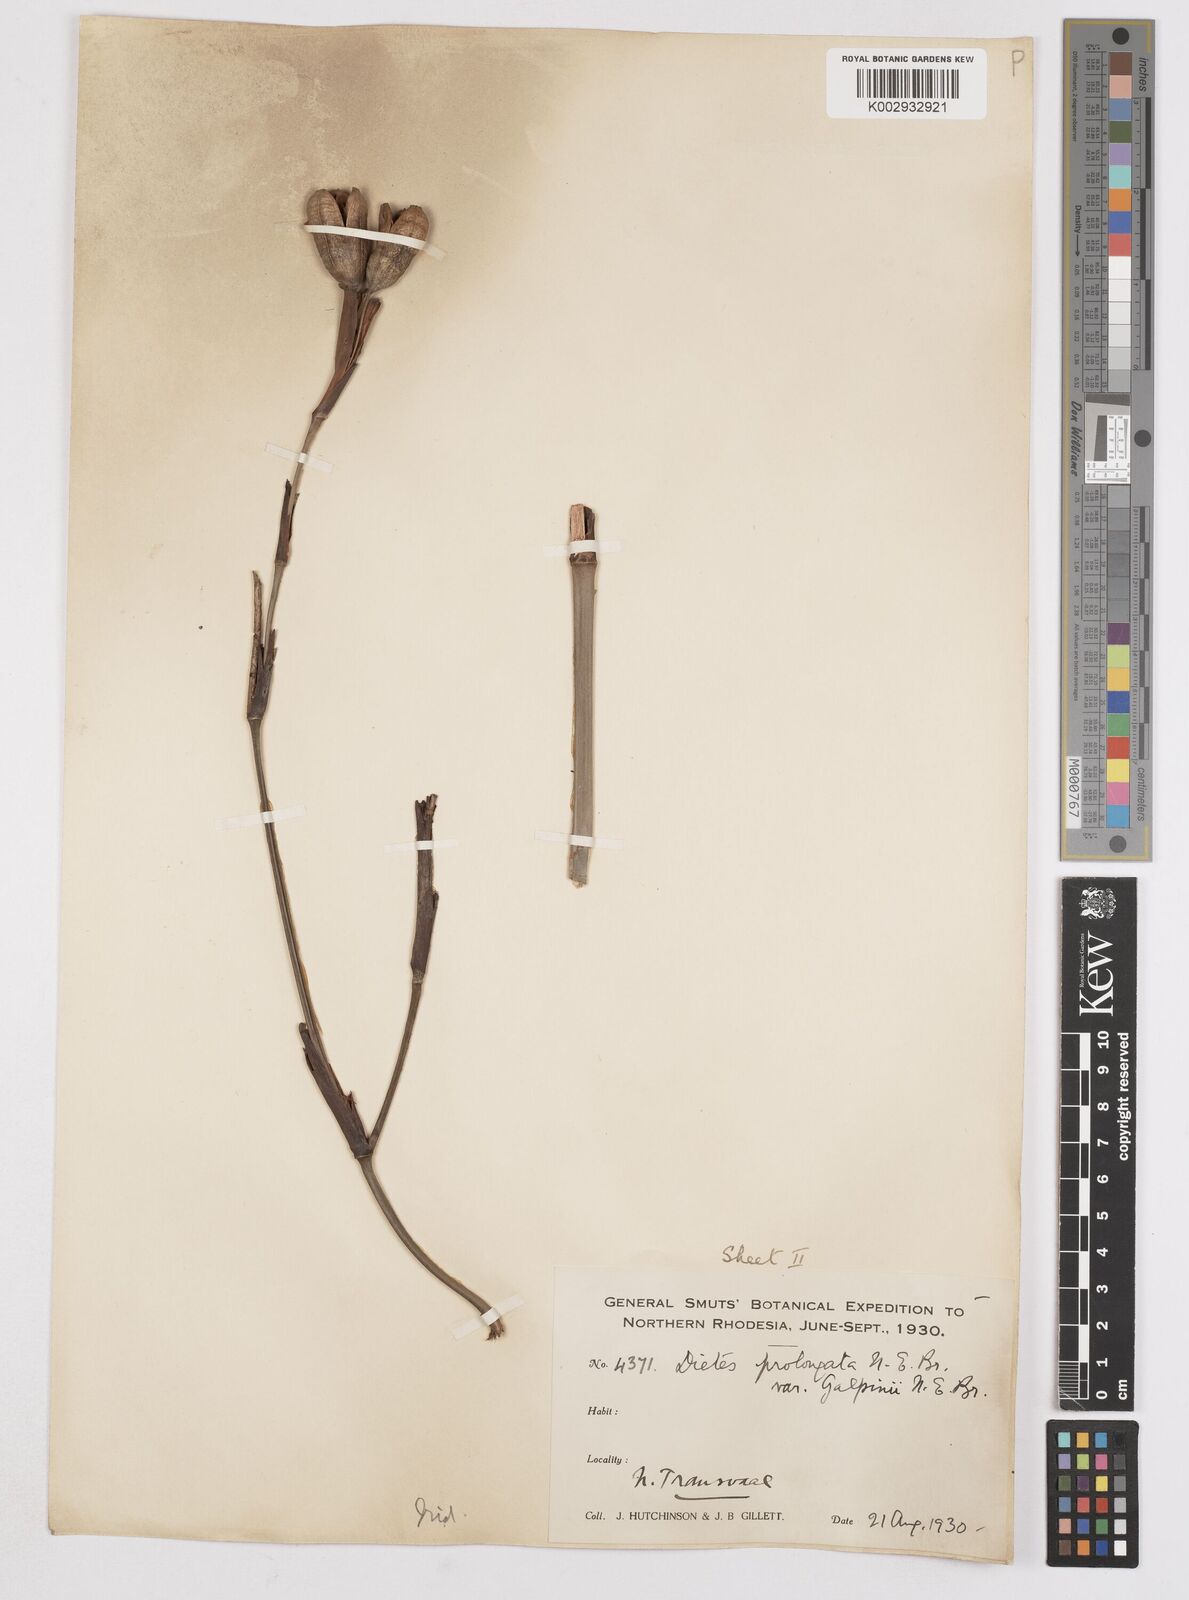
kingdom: Plantae
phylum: Tracheophyta
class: Liliopsida
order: Asparagales
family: Iridaceae
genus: Dietes
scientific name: Dietes iridioides
